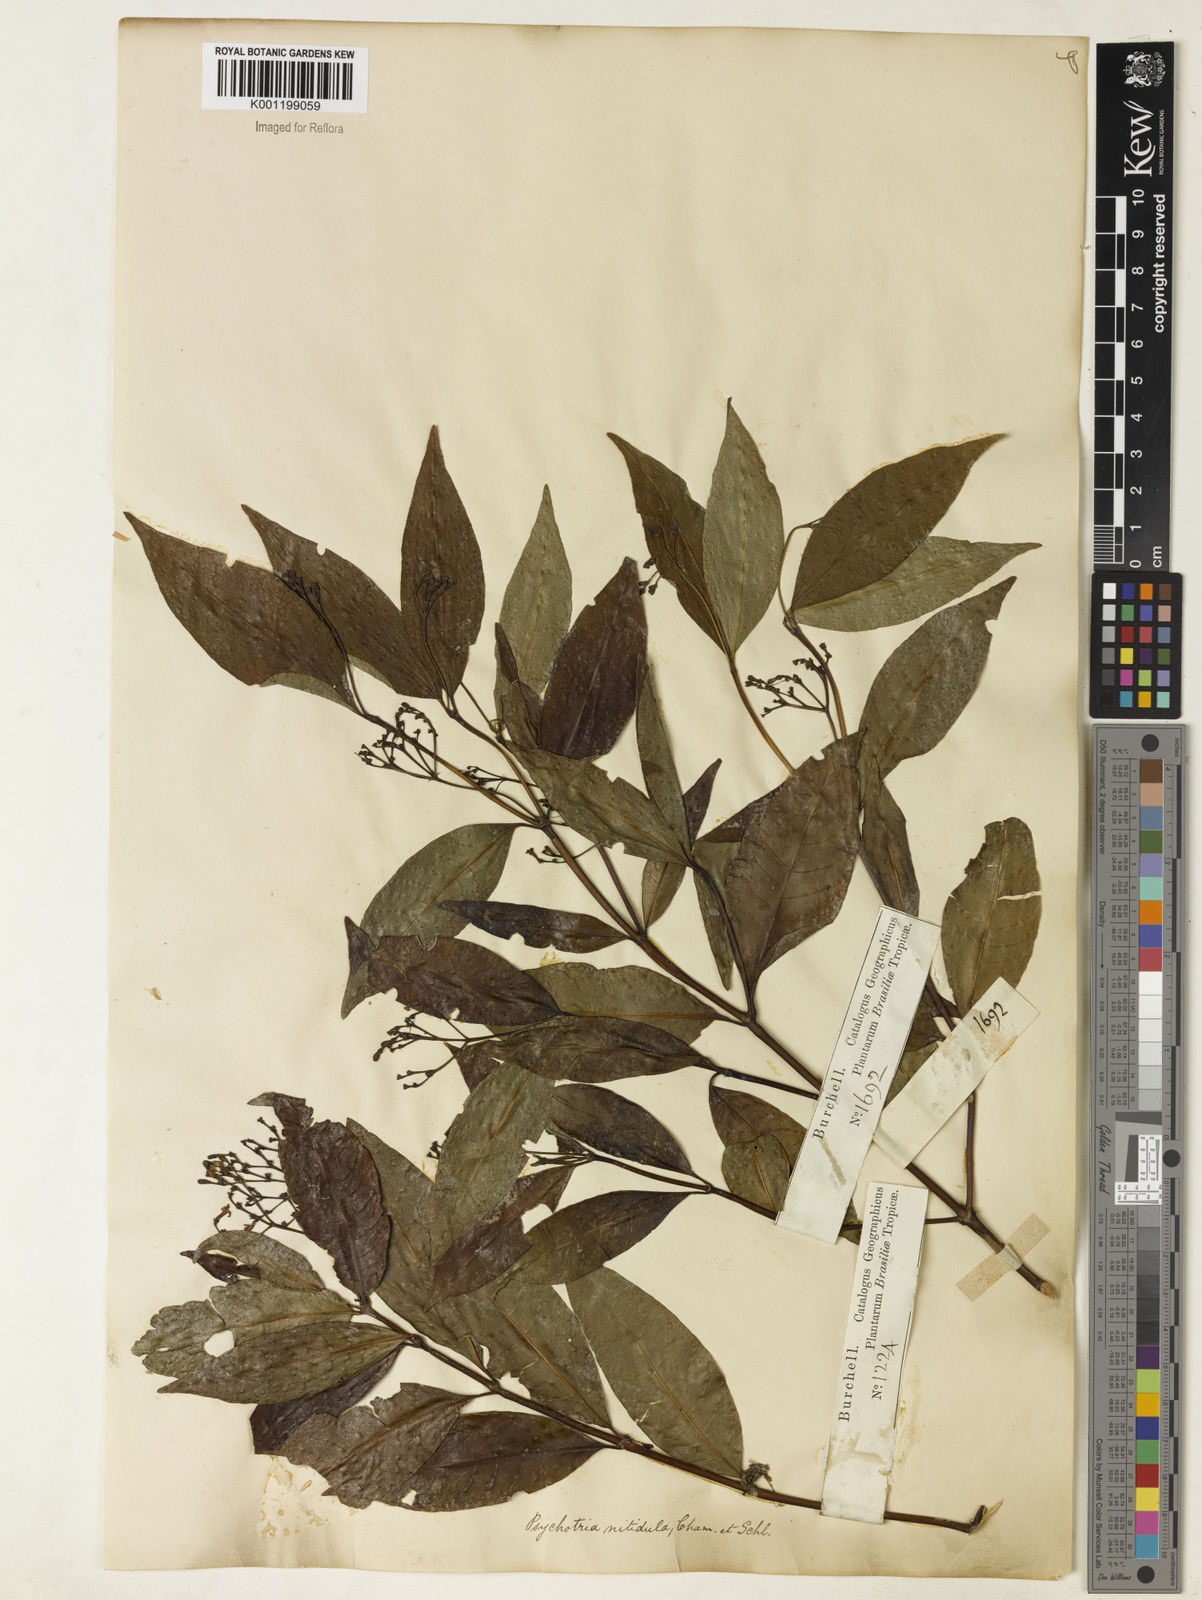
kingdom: Plantae
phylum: Tracheophyta
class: Magnoliopsida
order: Gentianales
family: Rubiaceae
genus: Psychotria
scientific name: Psychotria leiocarpa
